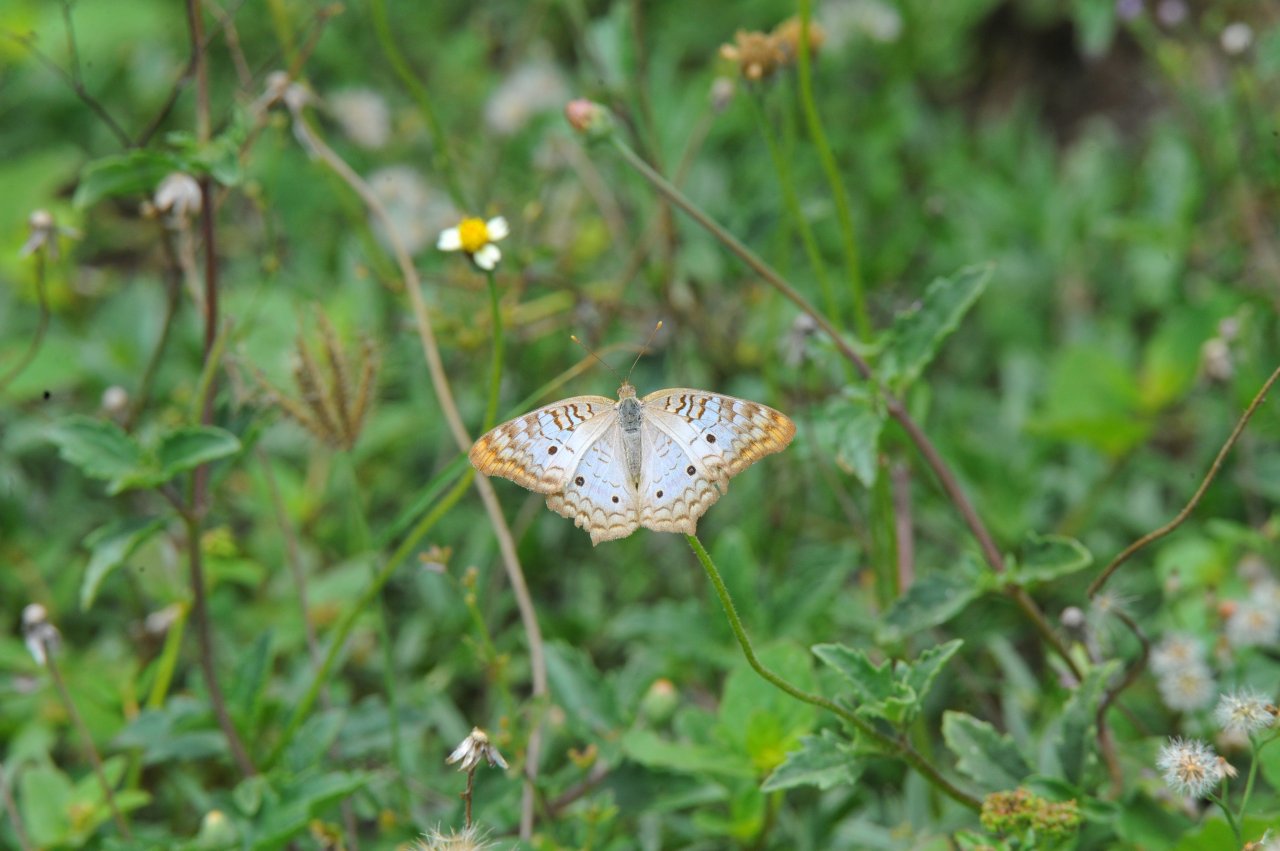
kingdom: Animalia
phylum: Arthropoda
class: Insecta
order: Lepidoptera
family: Nymphalidae
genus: Anartia
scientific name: Anartia jatrophae
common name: White Peacock
